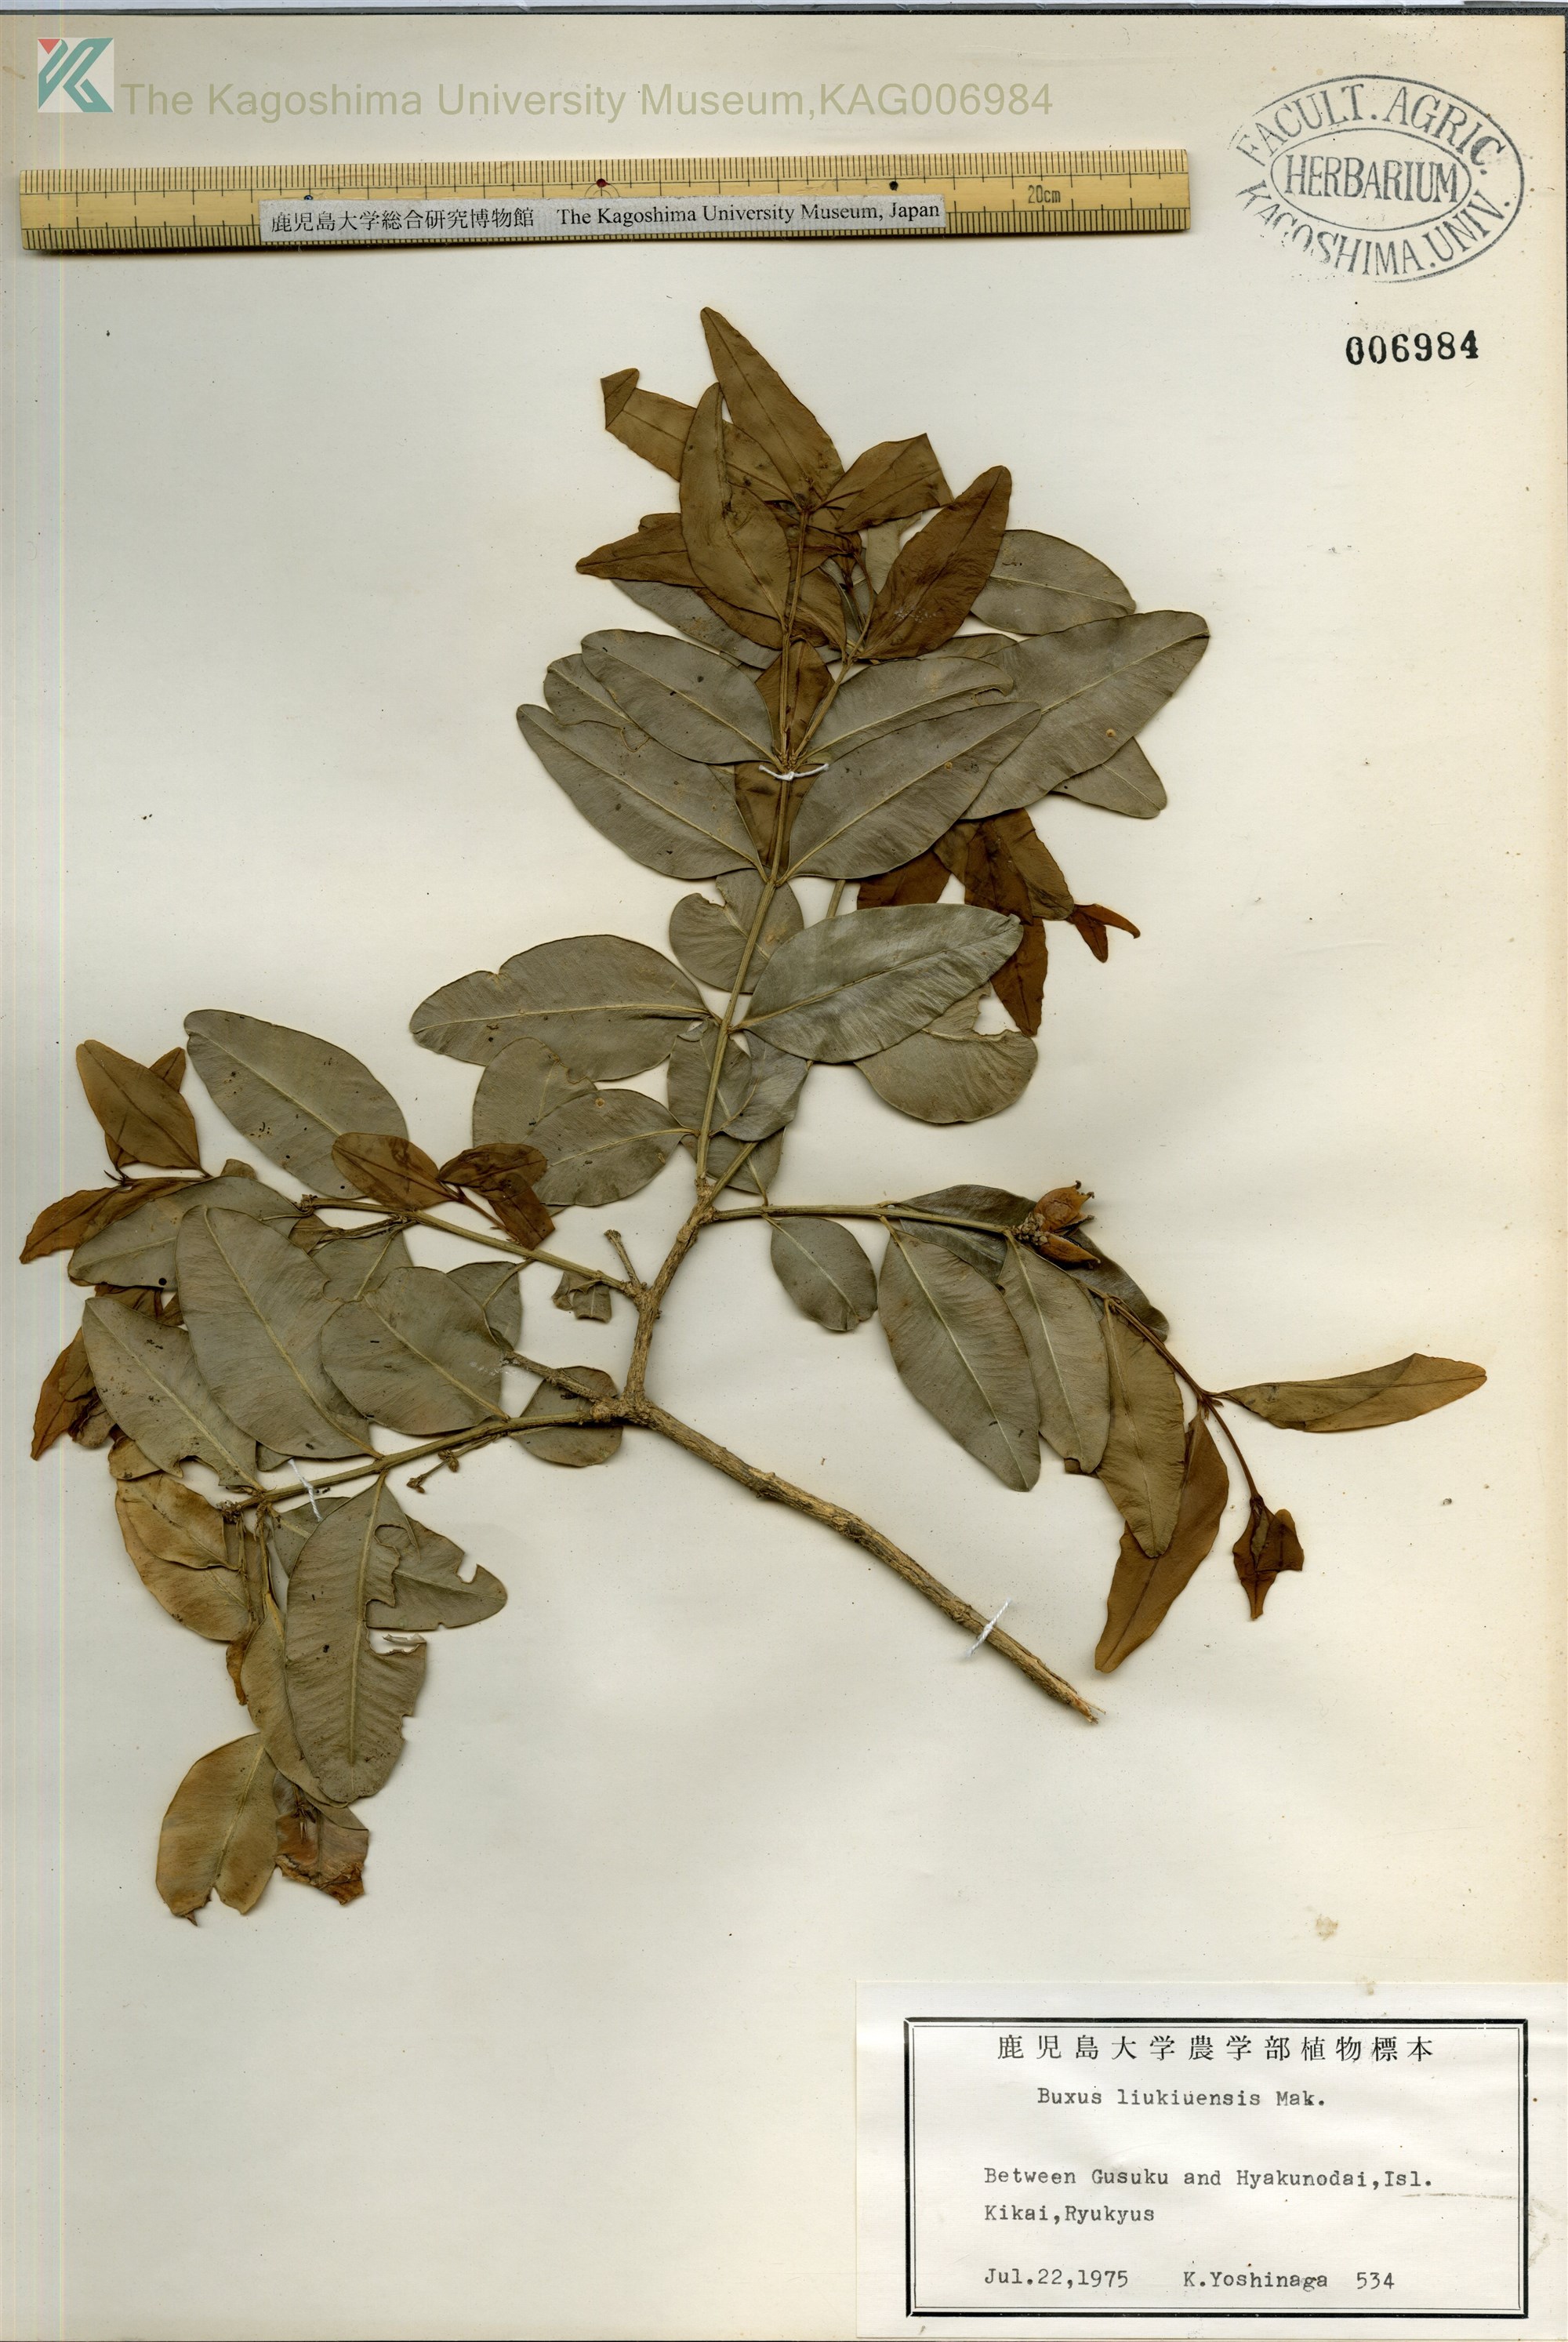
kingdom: Plantae
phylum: Tracheophyta
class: Magnoliopsida
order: Buxales
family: Buxaceae
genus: Buxus
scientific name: Buxus liukiuensis
